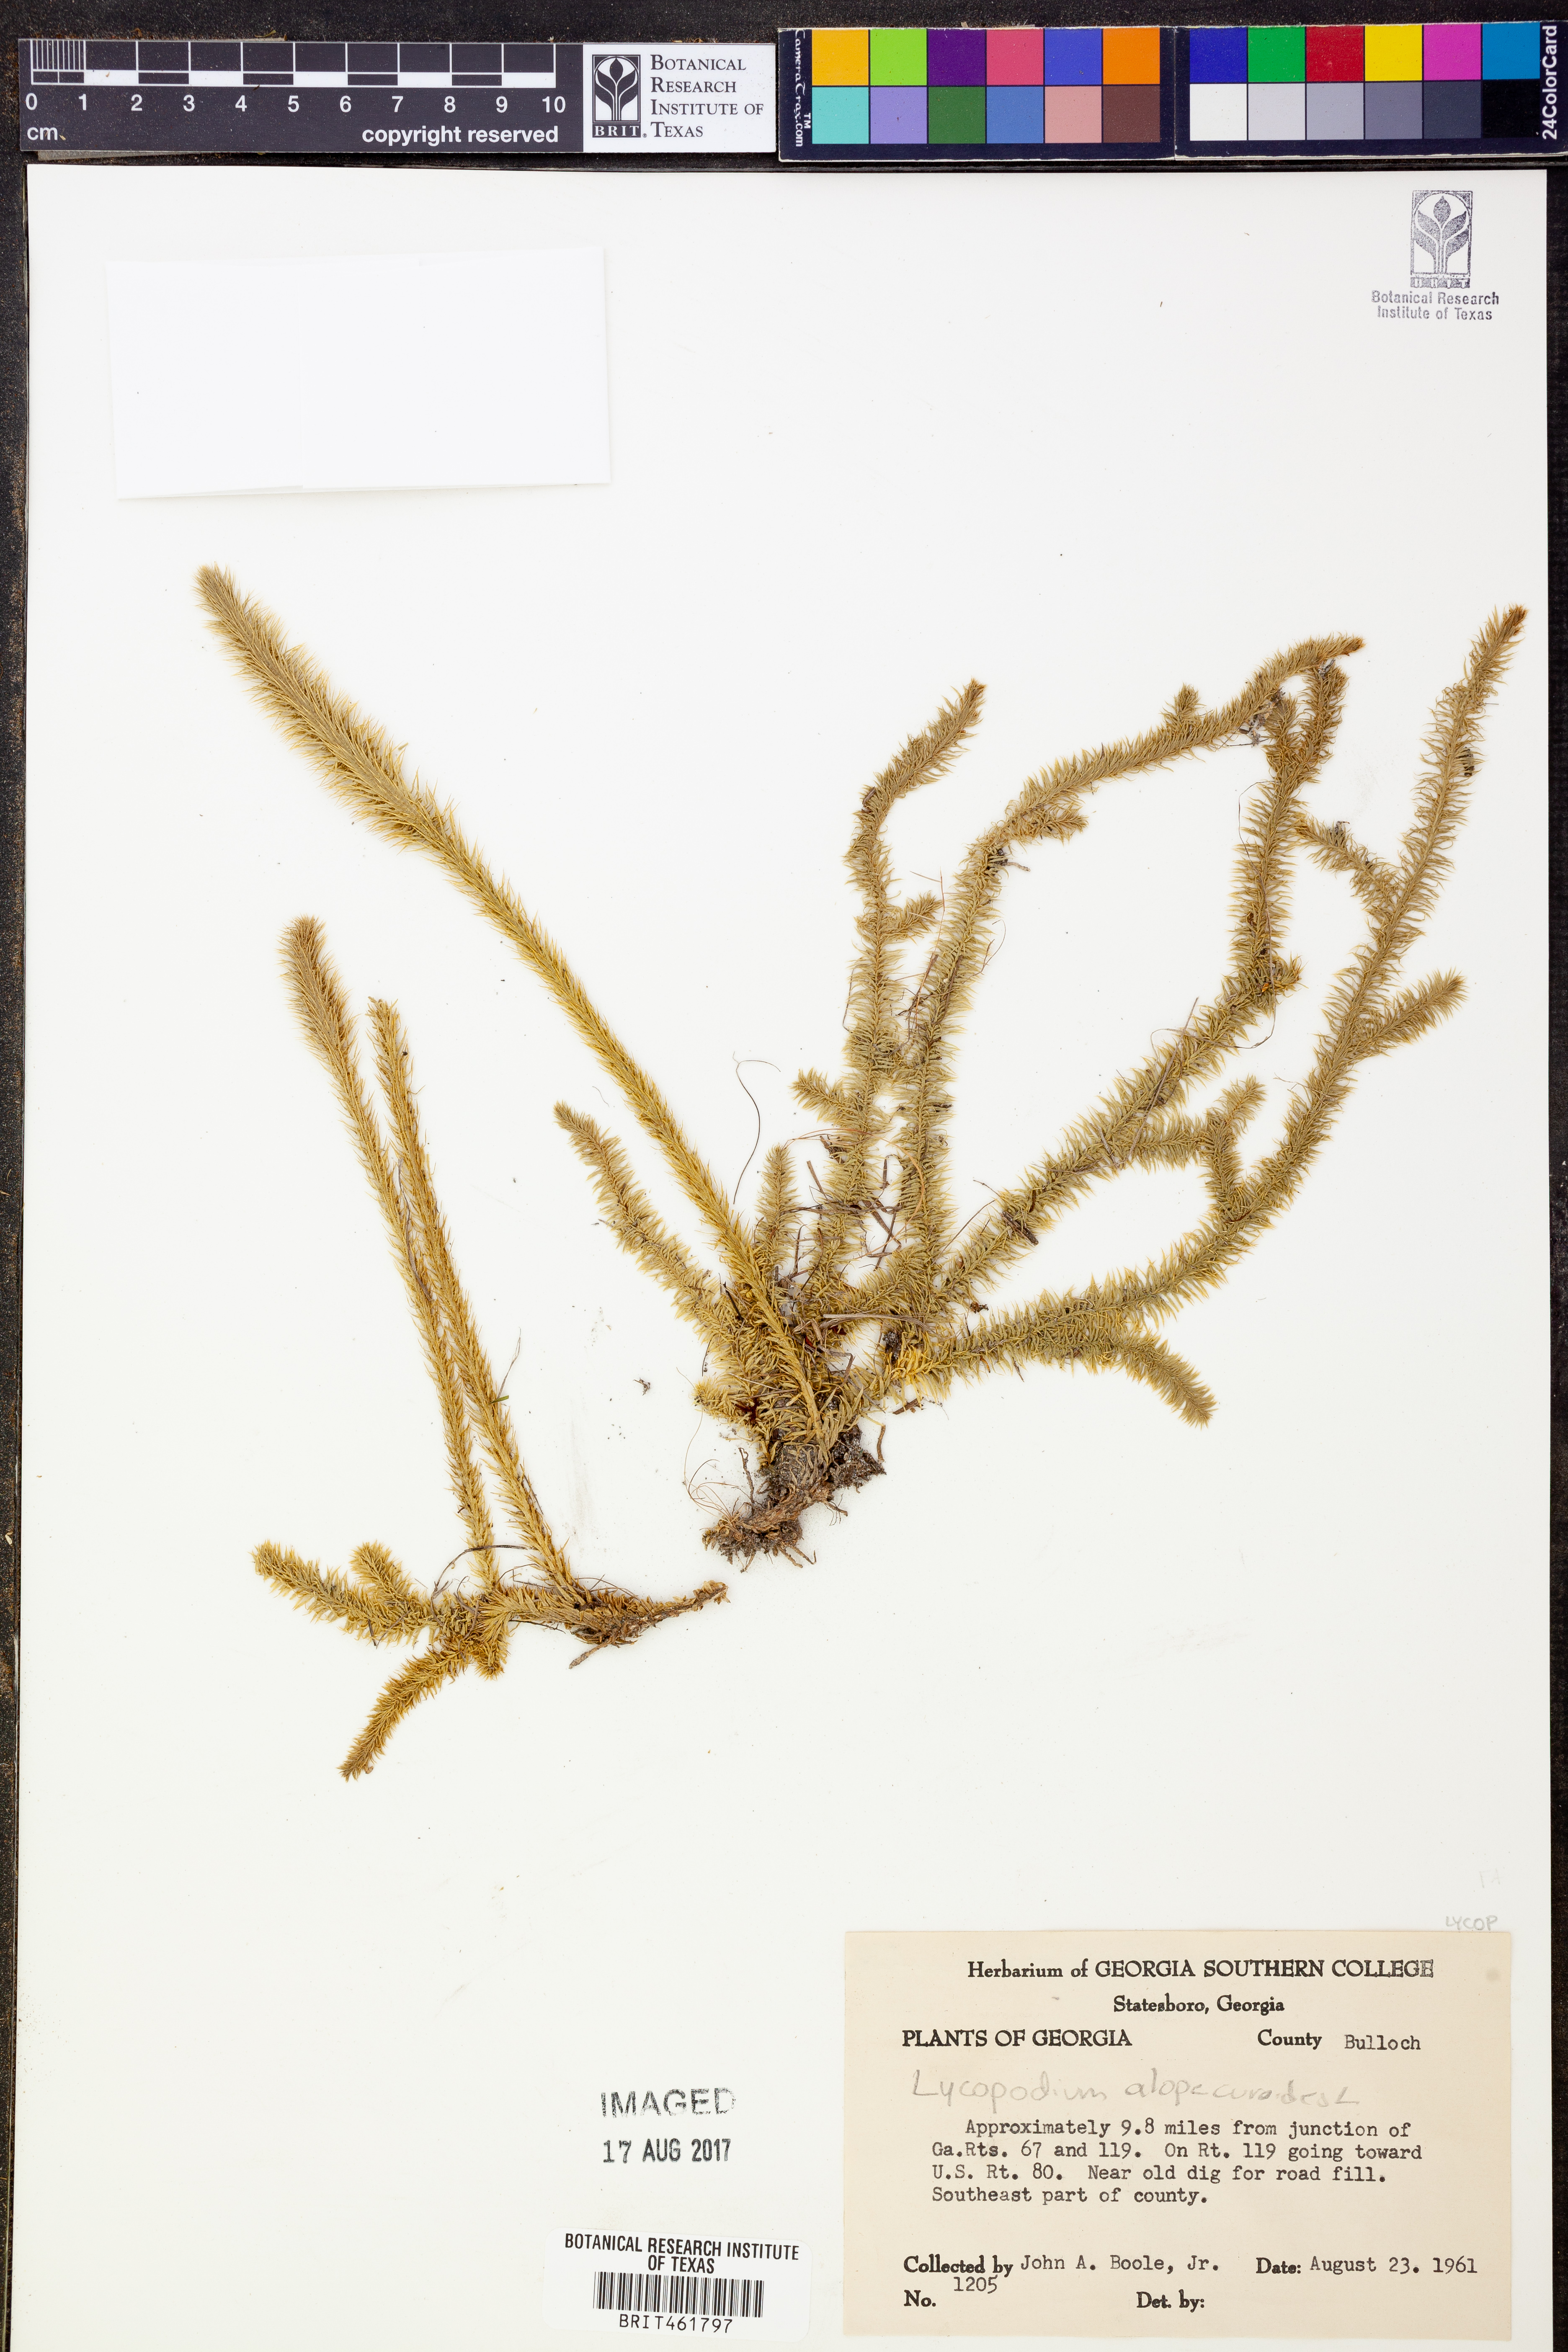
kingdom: Plantae
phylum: Tracheophyta
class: Lycopodiopsida
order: Lycopodiales
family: Lycopodiaceae
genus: Lycopodiella
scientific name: Lycopodiella alopecuroides
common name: Foxtail clubmoss
